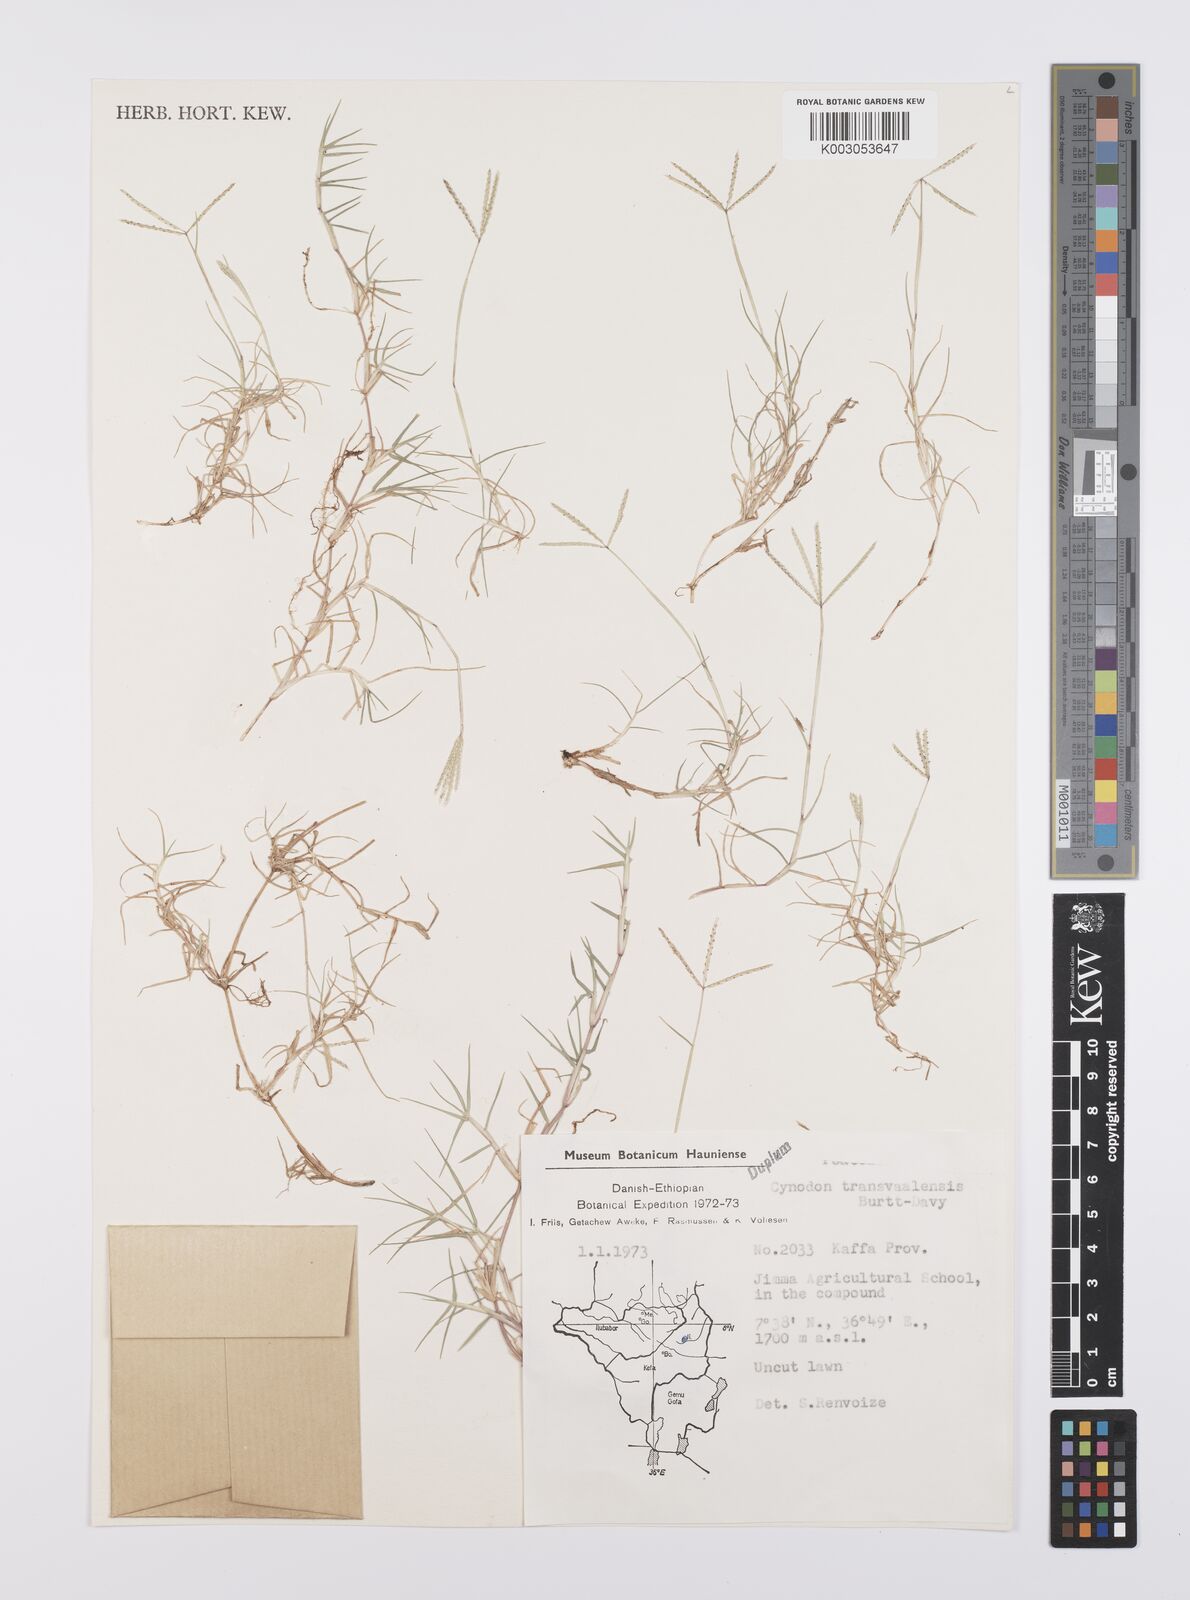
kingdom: Plantae
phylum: Tracheophyta
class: Liliopsida
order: Poales
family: Poaceae
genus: Cynodon
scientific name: Cynodon transvaalensis
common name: African bermuda grass
